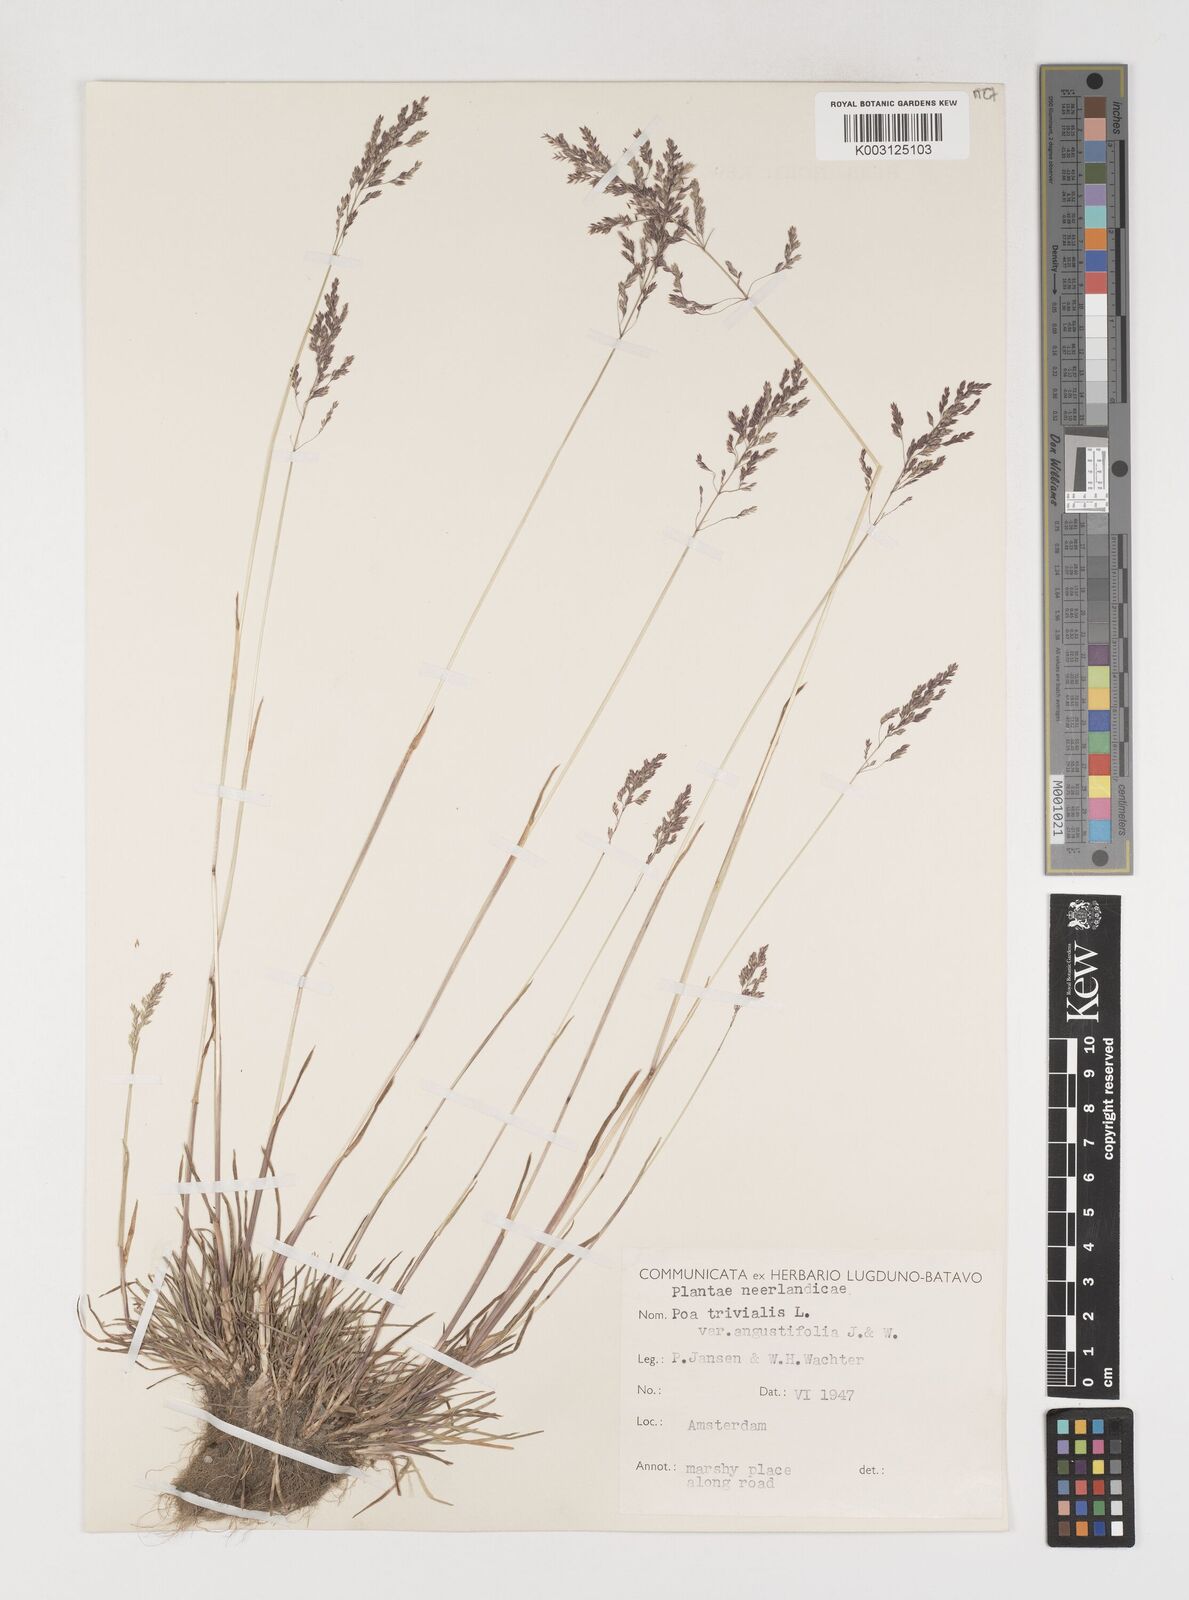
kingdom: Plantae
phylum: Tracheophyta
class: Liliopsida
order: Poales
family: Poaceae
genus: Poa
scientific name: Poa trivialis
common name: Rough bluegrass
